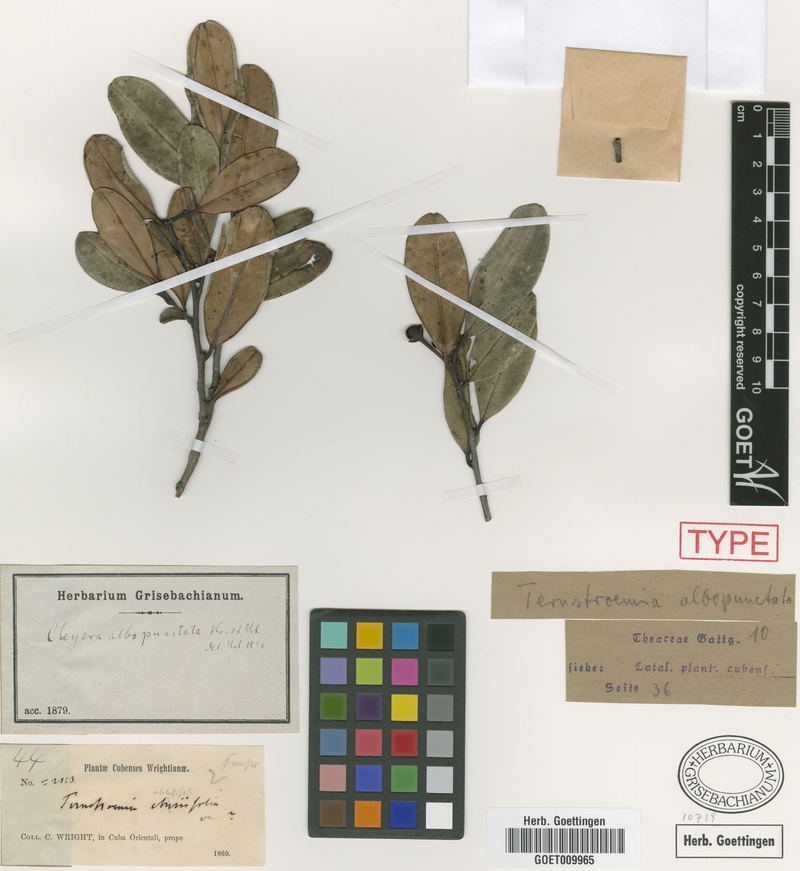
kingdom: Plantae
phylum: Tracheophyta
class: Magnoliopsida
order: Ericales
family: Pentaphylacaceae
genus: Cleyera
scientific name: Cleyera albopunctata
